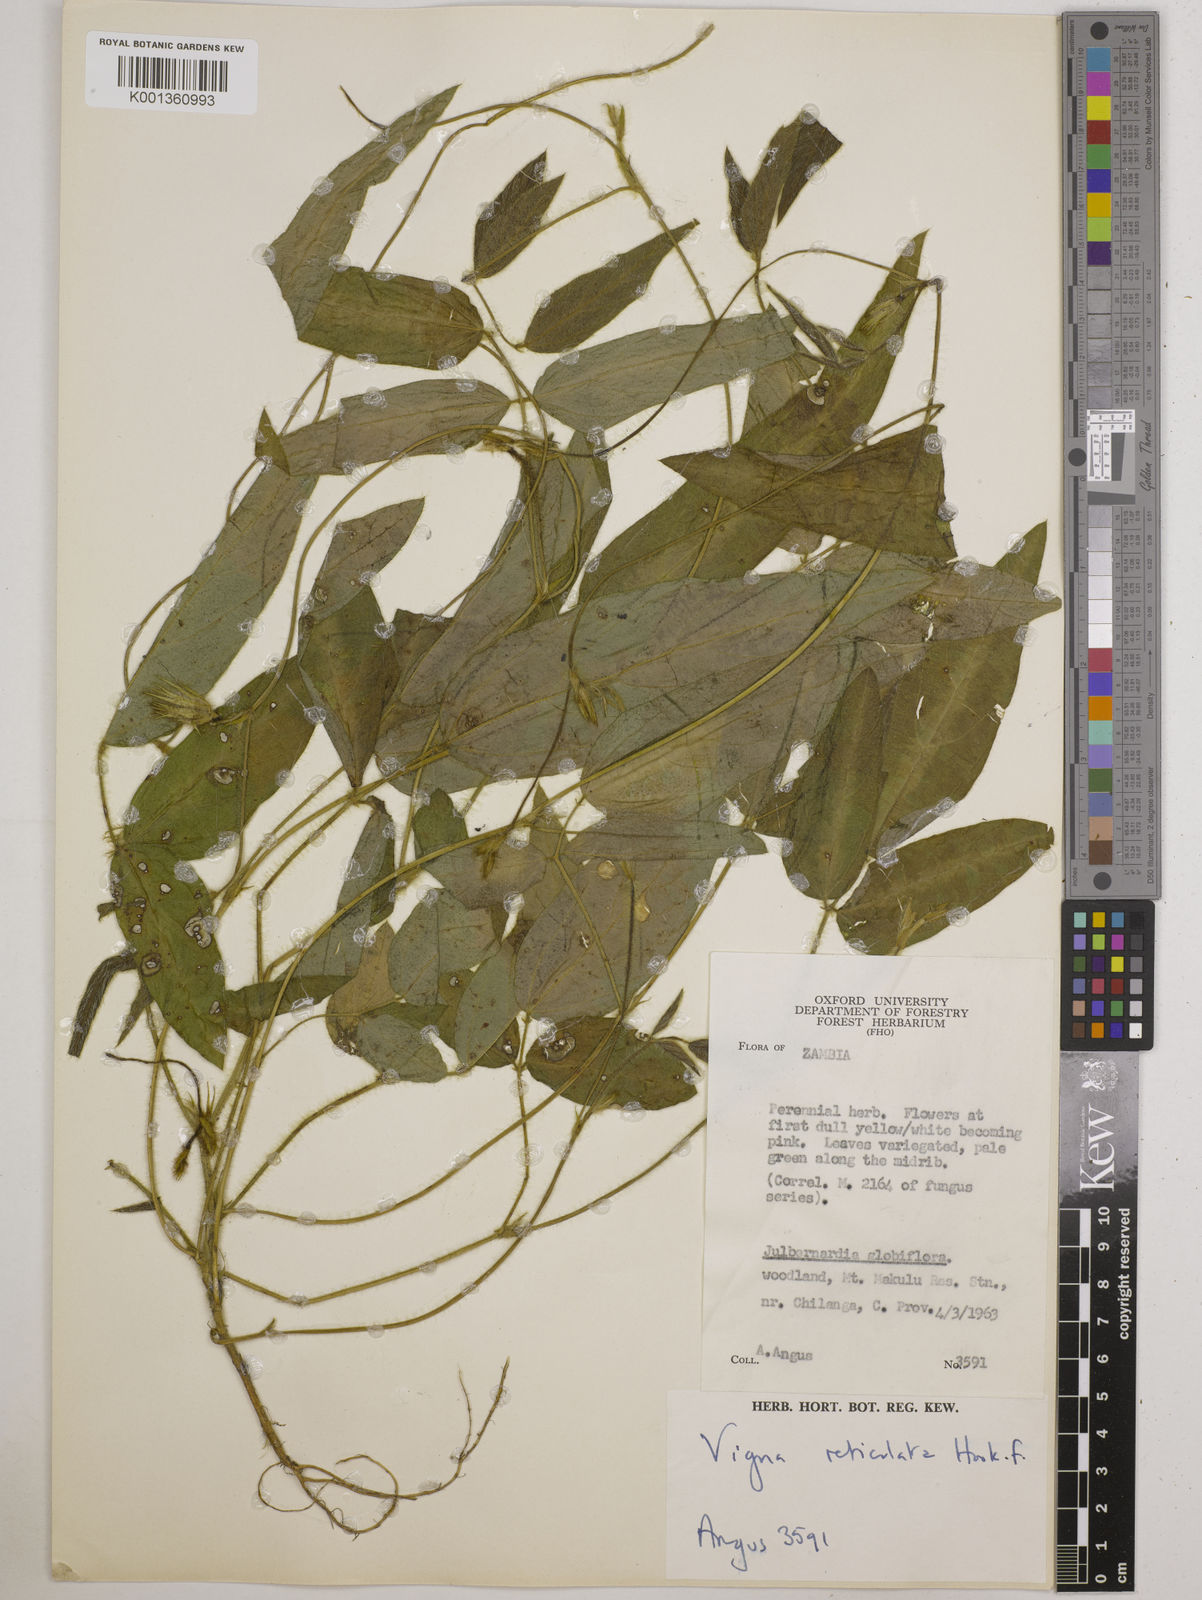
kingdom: Plantae
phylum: Tracheophyta
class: Magnoliopsida
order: Fabales
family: Fabaceae
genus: Vigna
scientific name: Vigna reticulata
